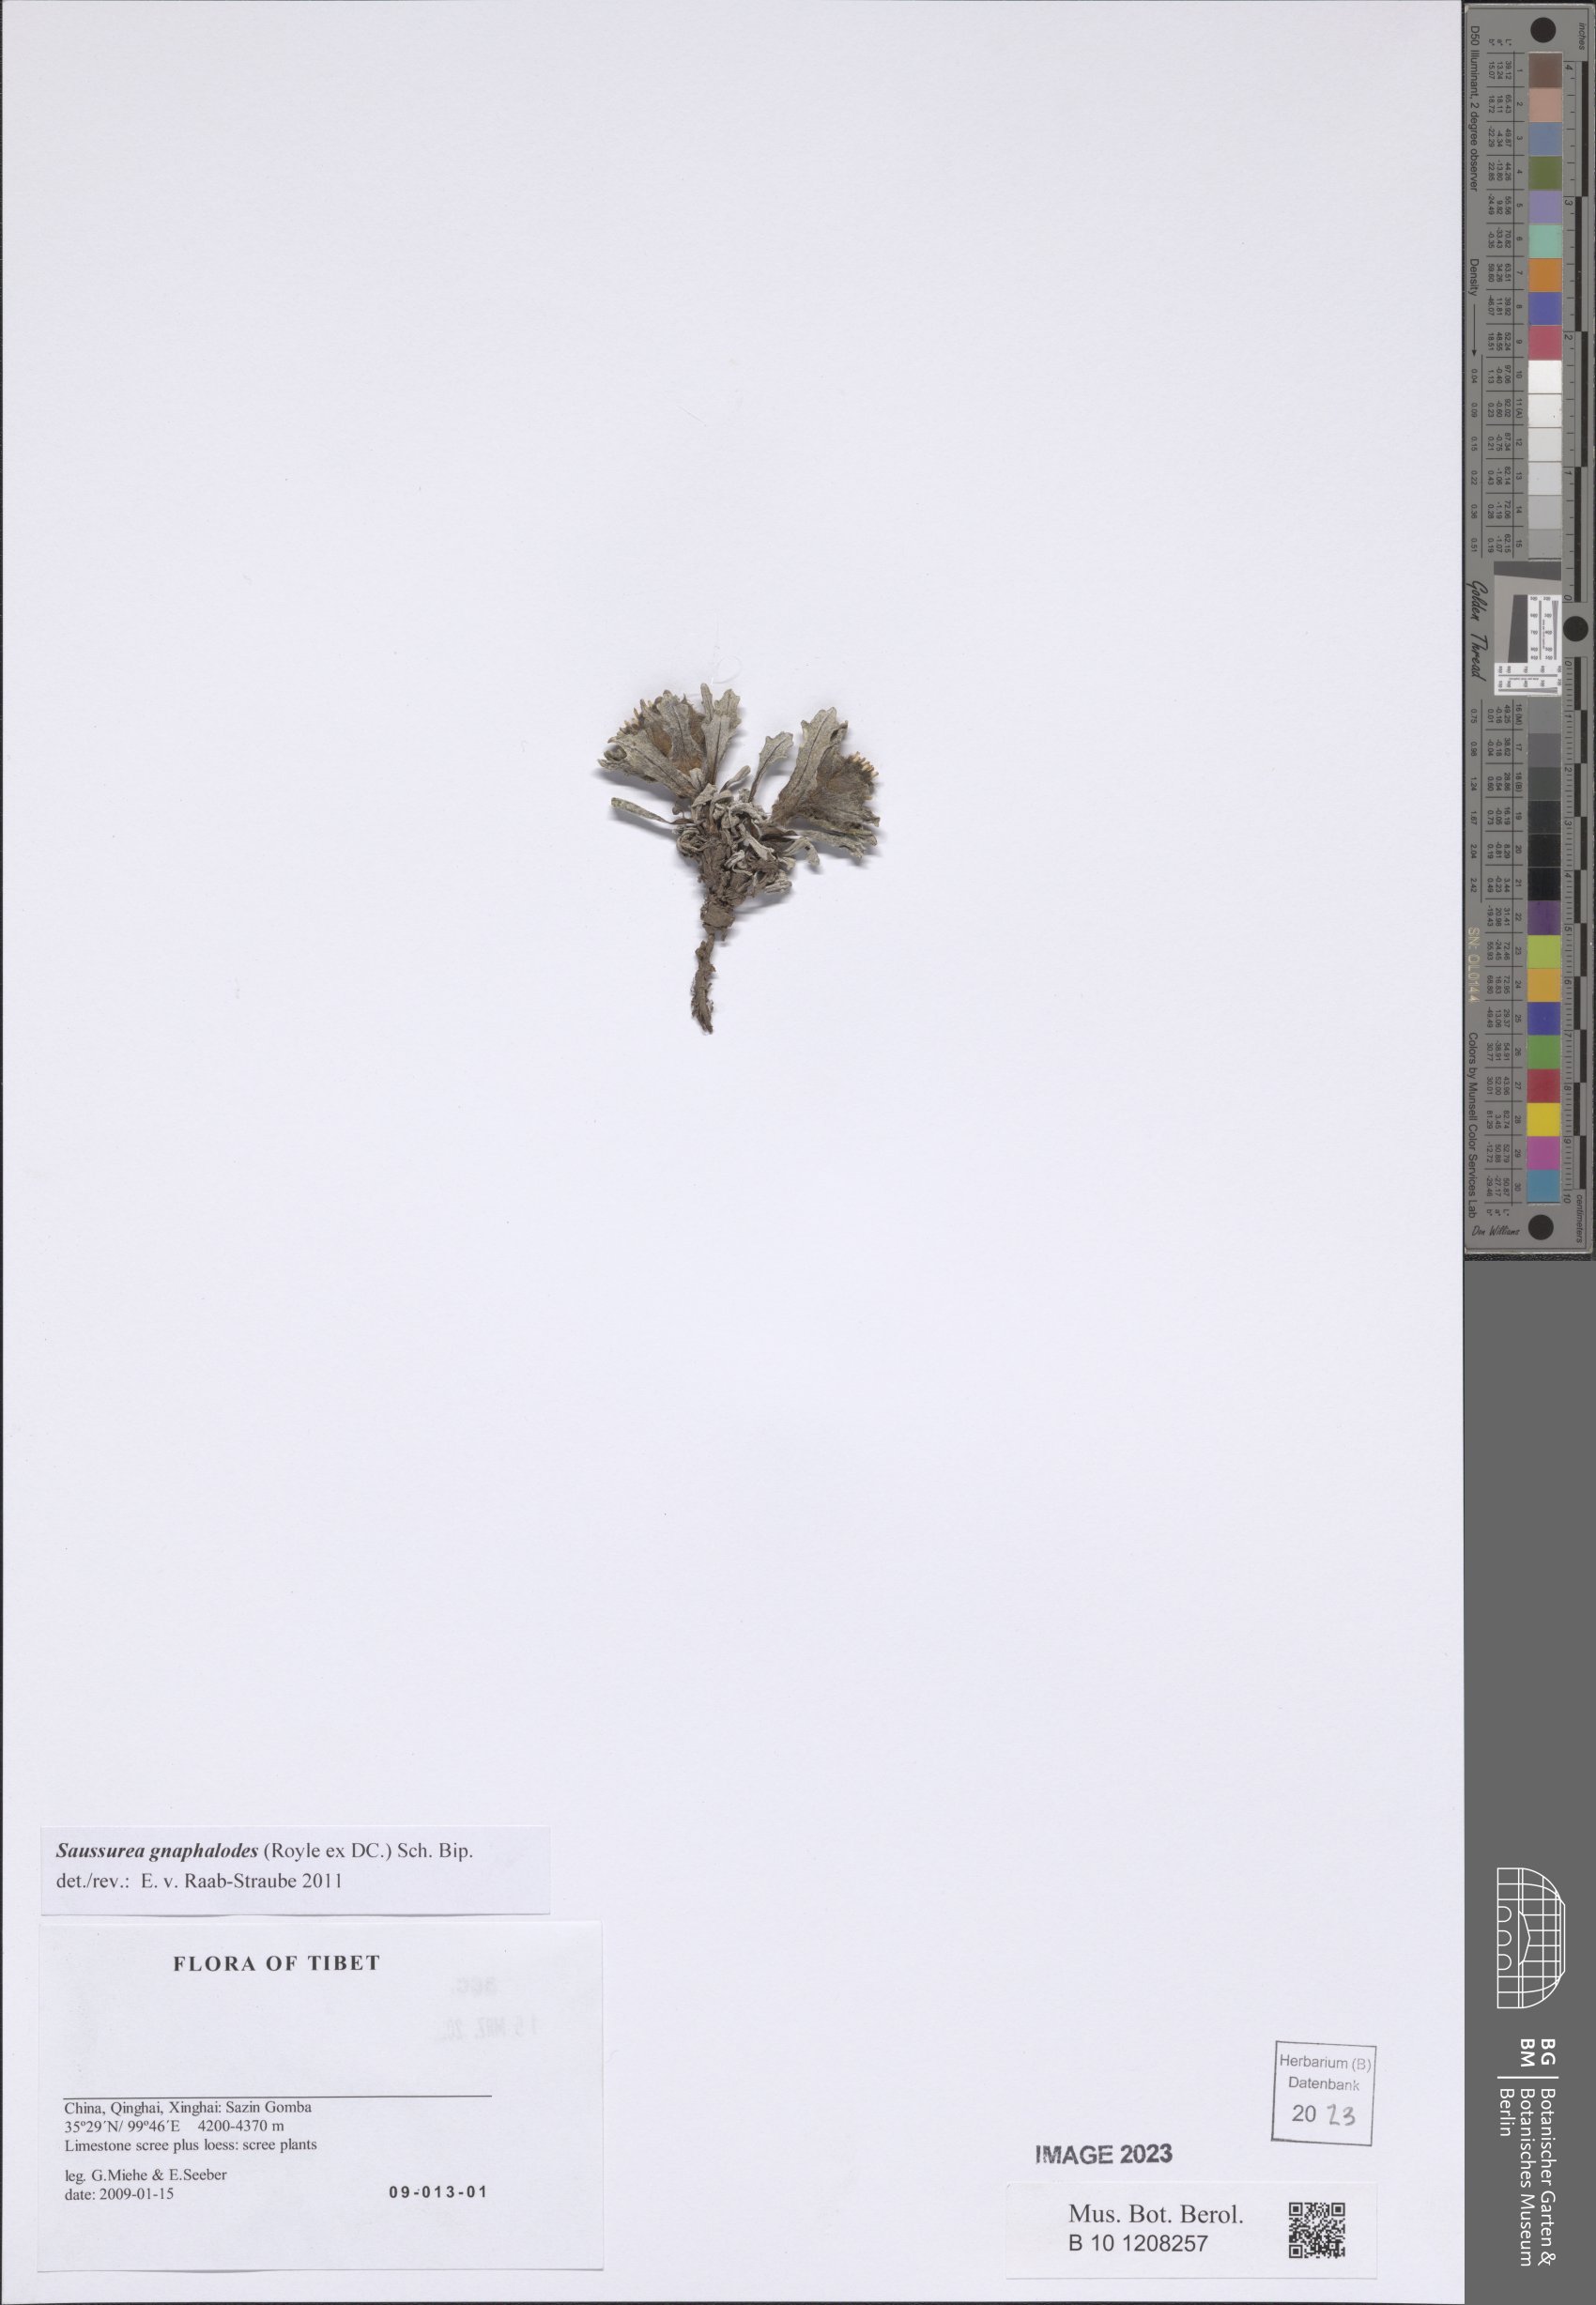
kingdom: Plantae
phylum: Tracheophyta
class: Magnoliopsida
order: Asterales
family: Asteraceae
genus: Saussurea
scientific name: Saussurea gnaphalodes
